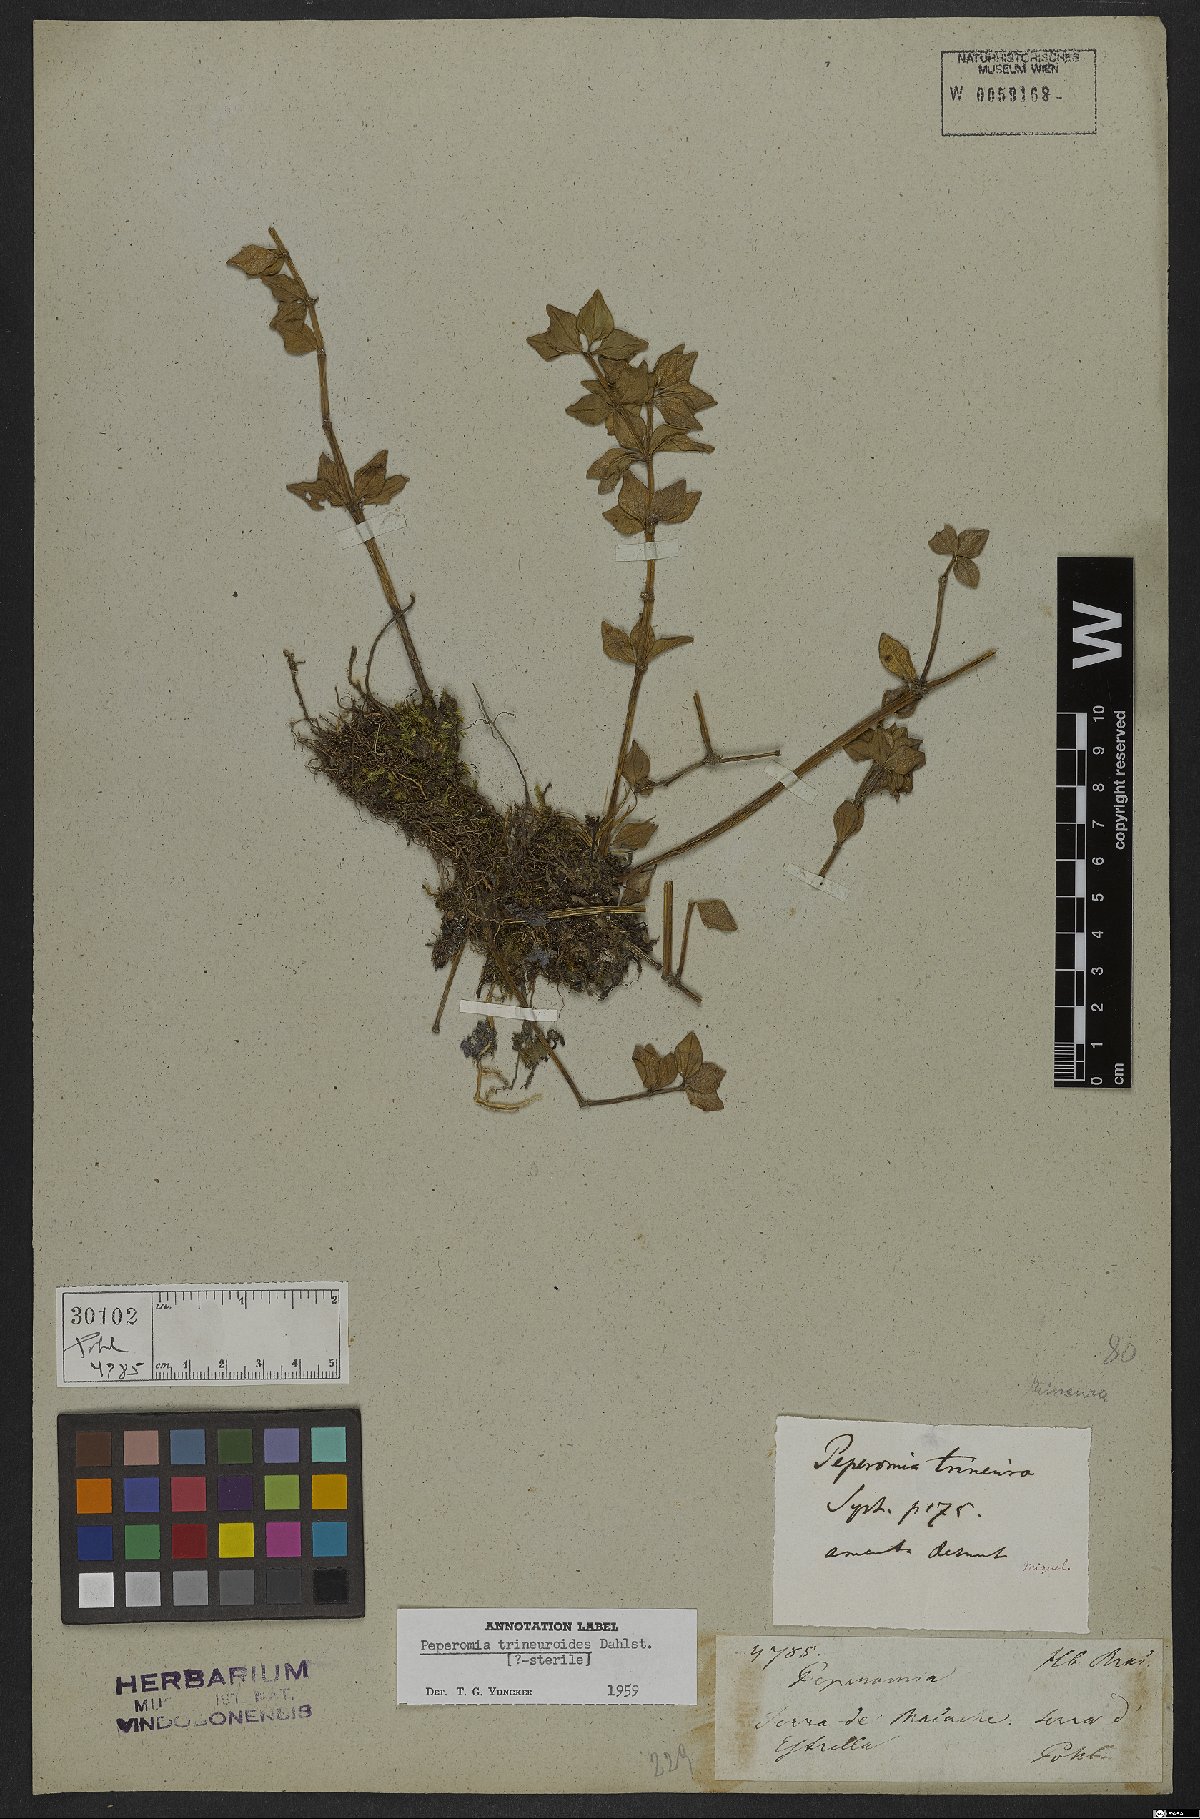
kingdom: Plantae
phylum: Tracheophyta
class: Magnoliopsida
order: Piperales
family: Piperaceae
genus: Peperomia
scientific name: Peperomia trineuroides
